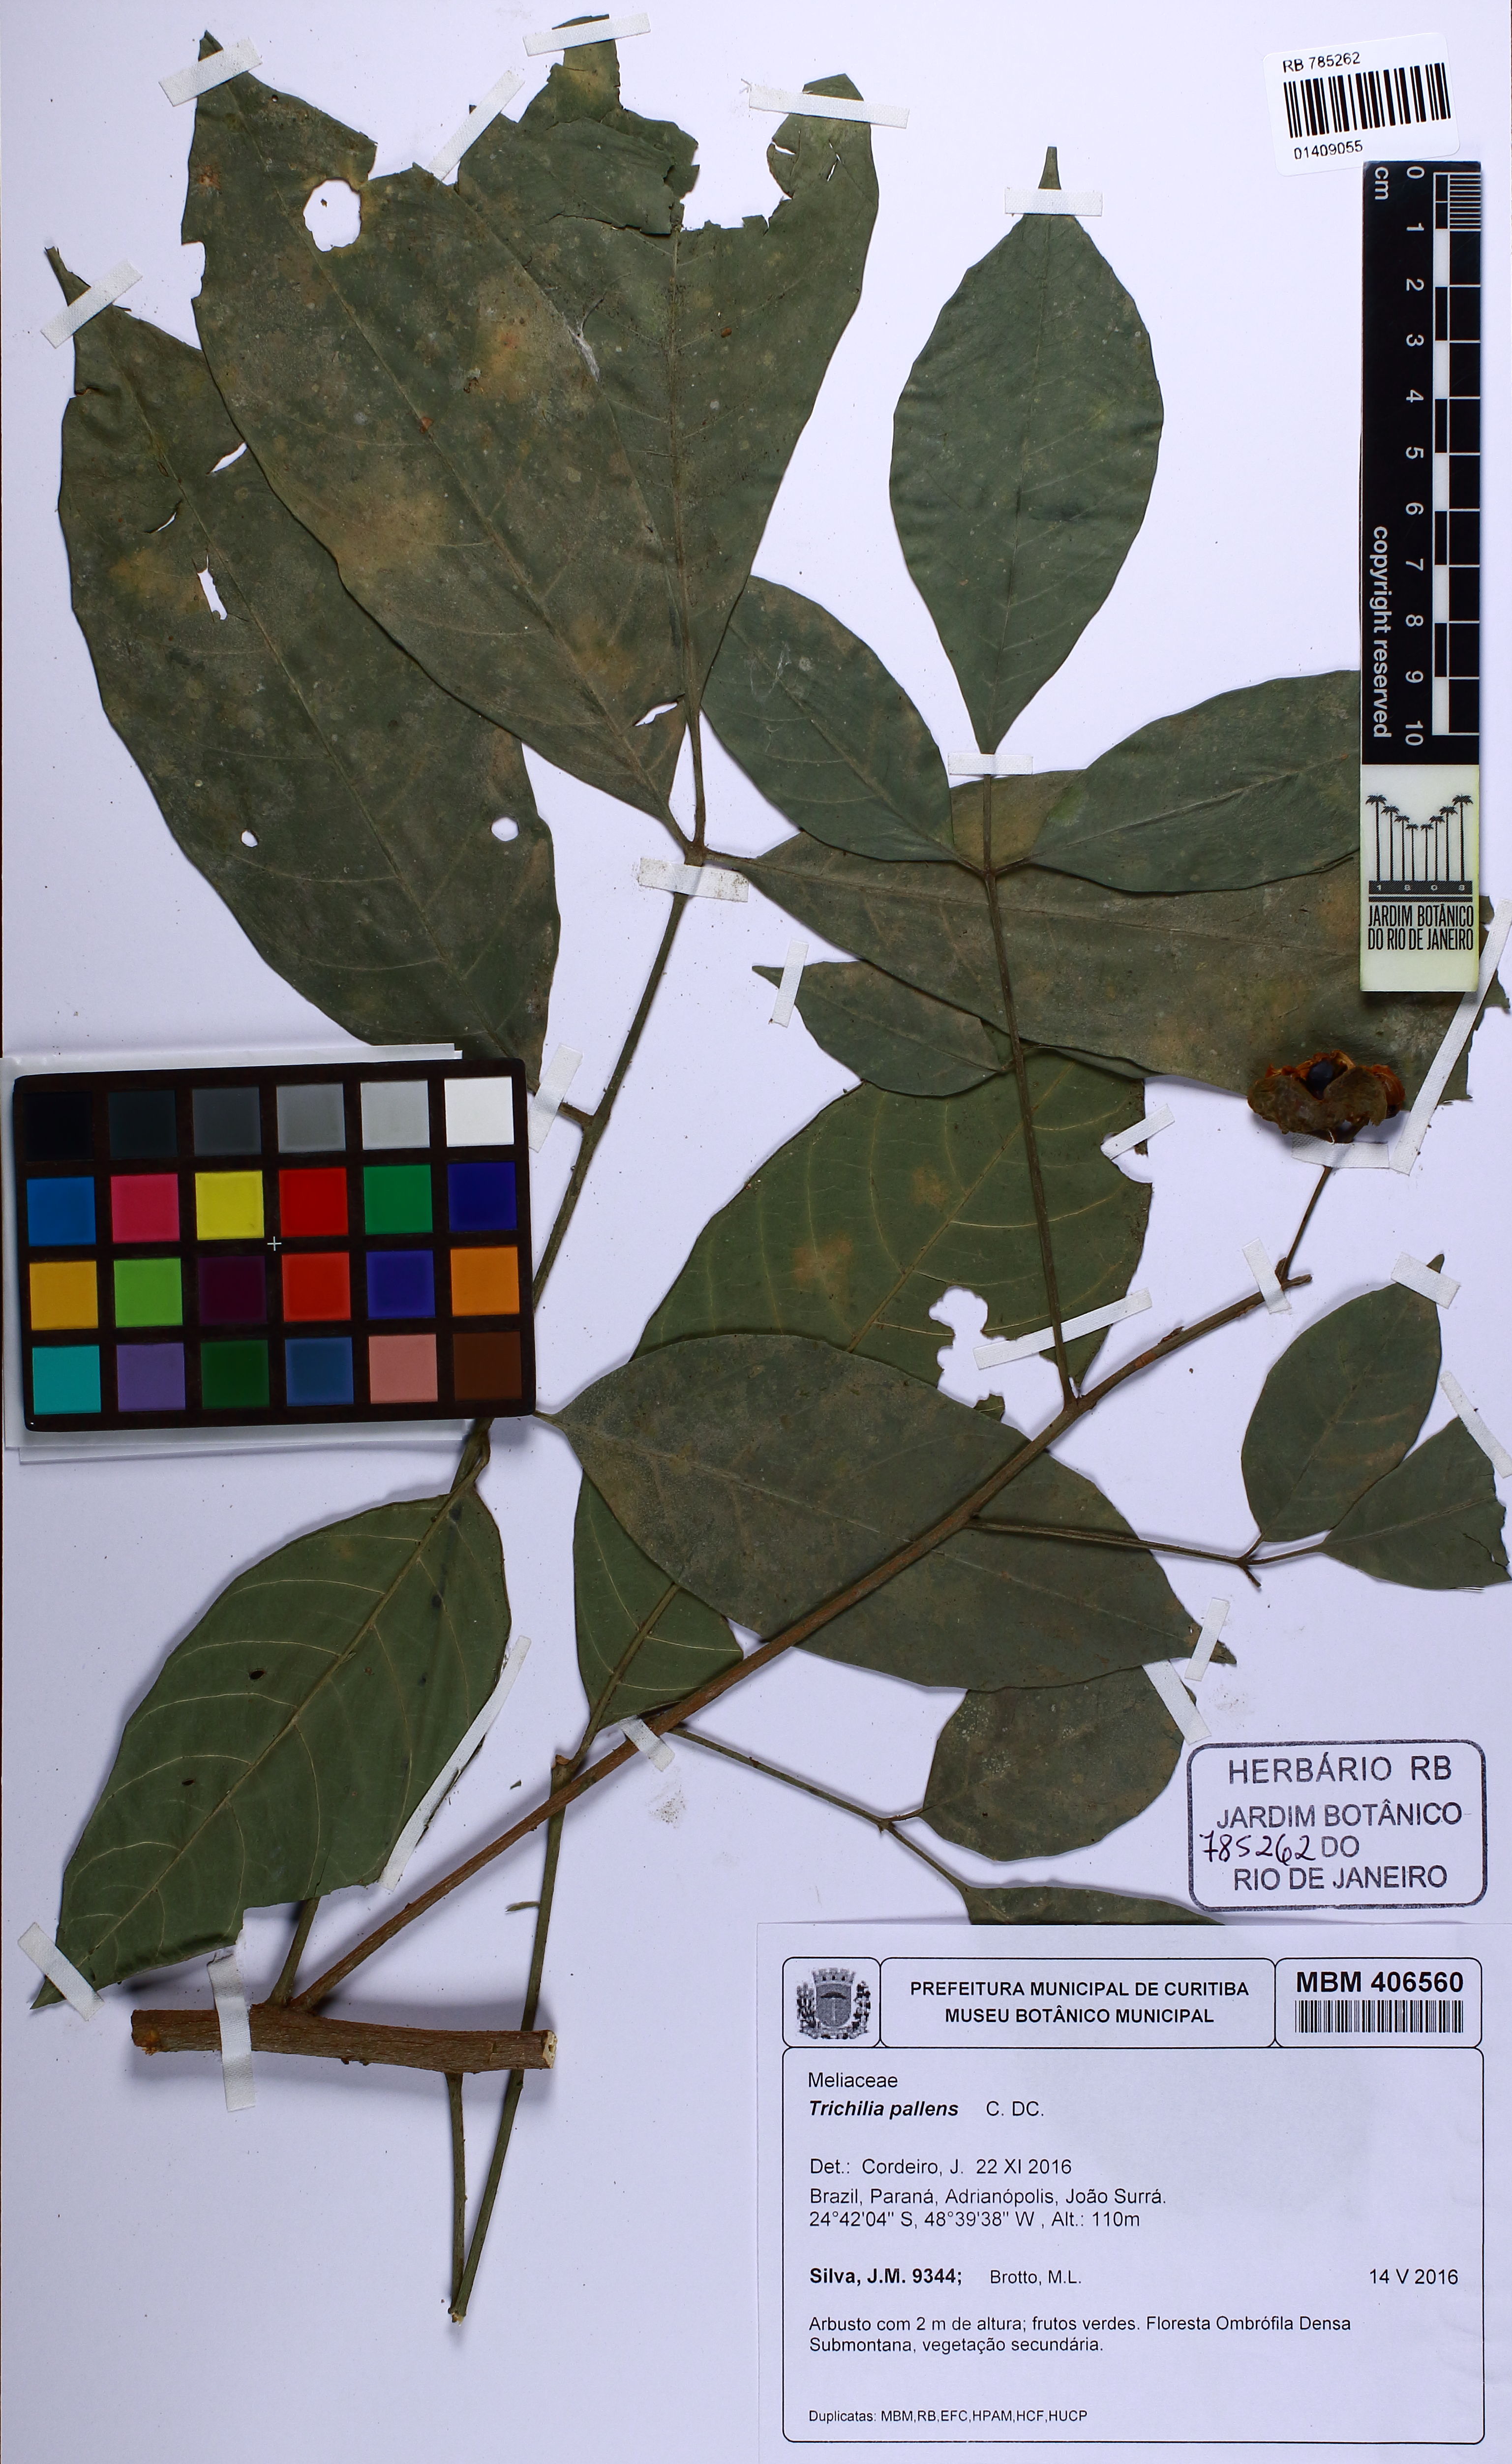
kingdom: Plantae
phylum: Tracheophyta
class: Magnoliopsida
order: Sapindales
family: Meliaceae
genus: Trichilia
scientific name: Trichilia pallens
